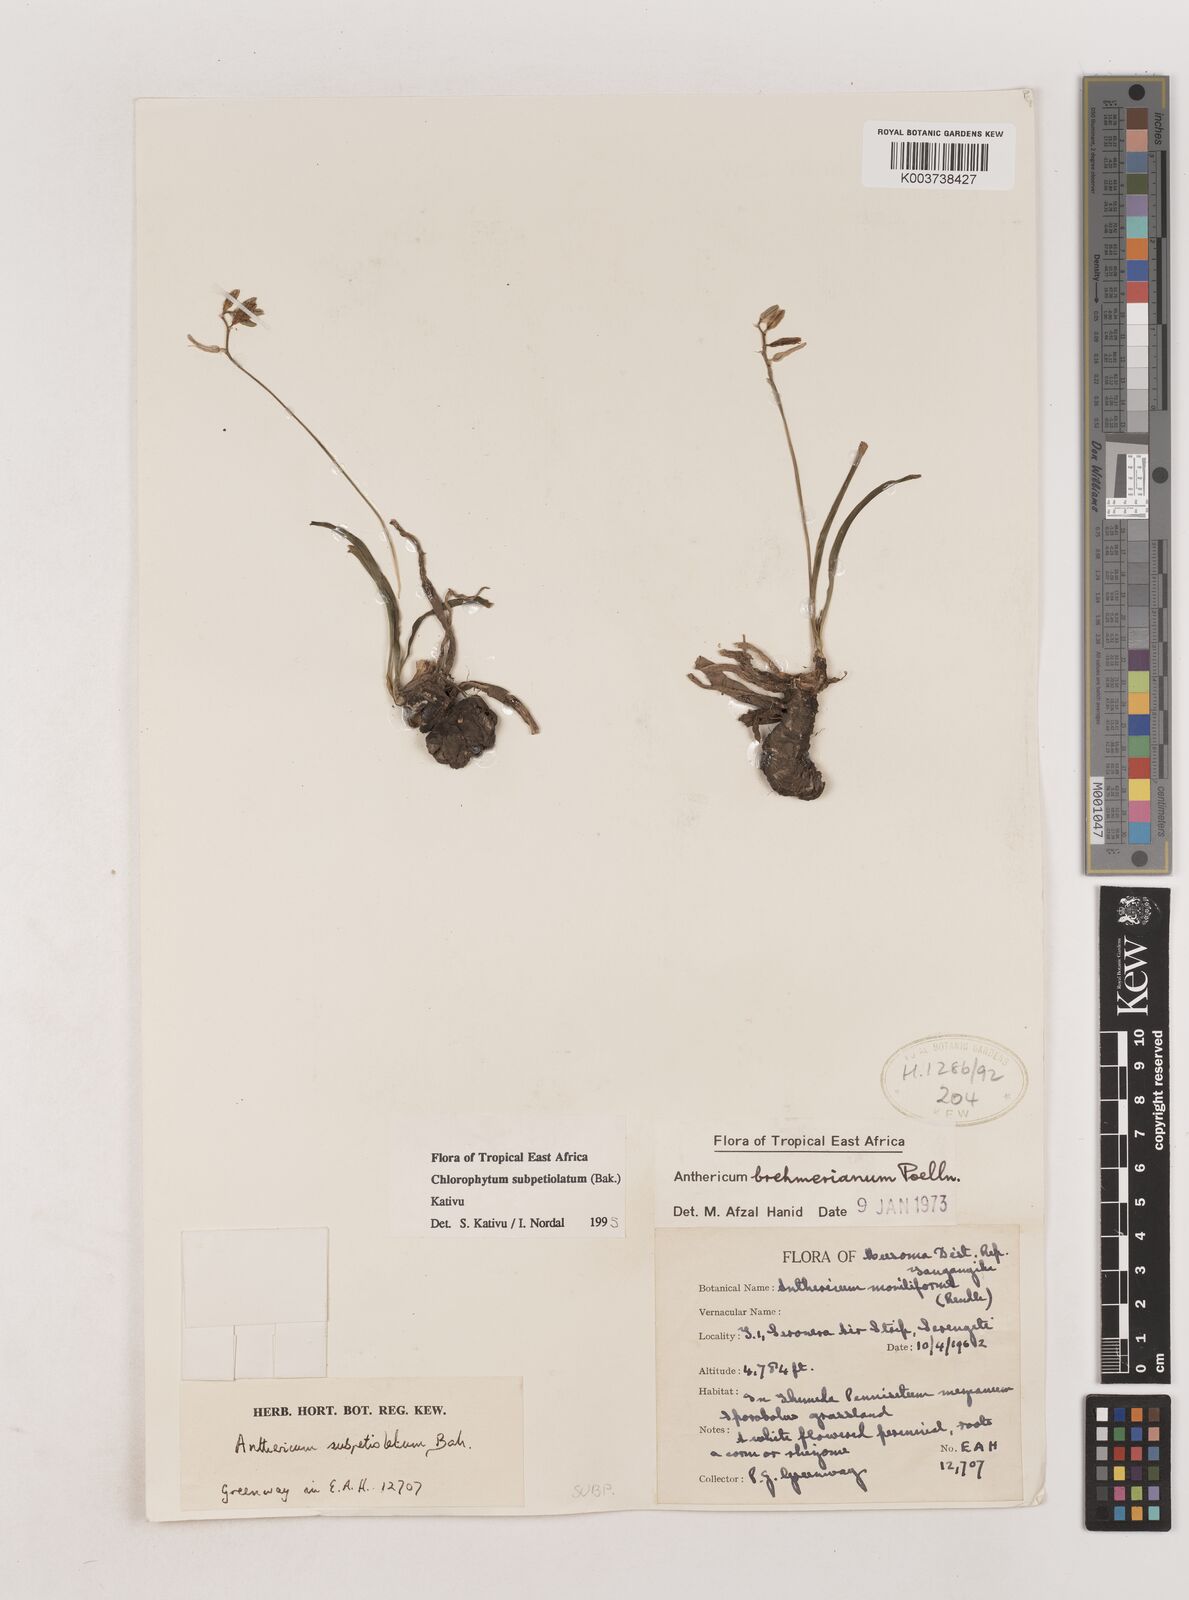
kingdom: Plantae
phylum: Tracheophyta
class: Liliopsida
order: Asparagales
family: Asparagaceae
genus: Chlorophytum
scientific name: Chlorophytum subpetiolatum
